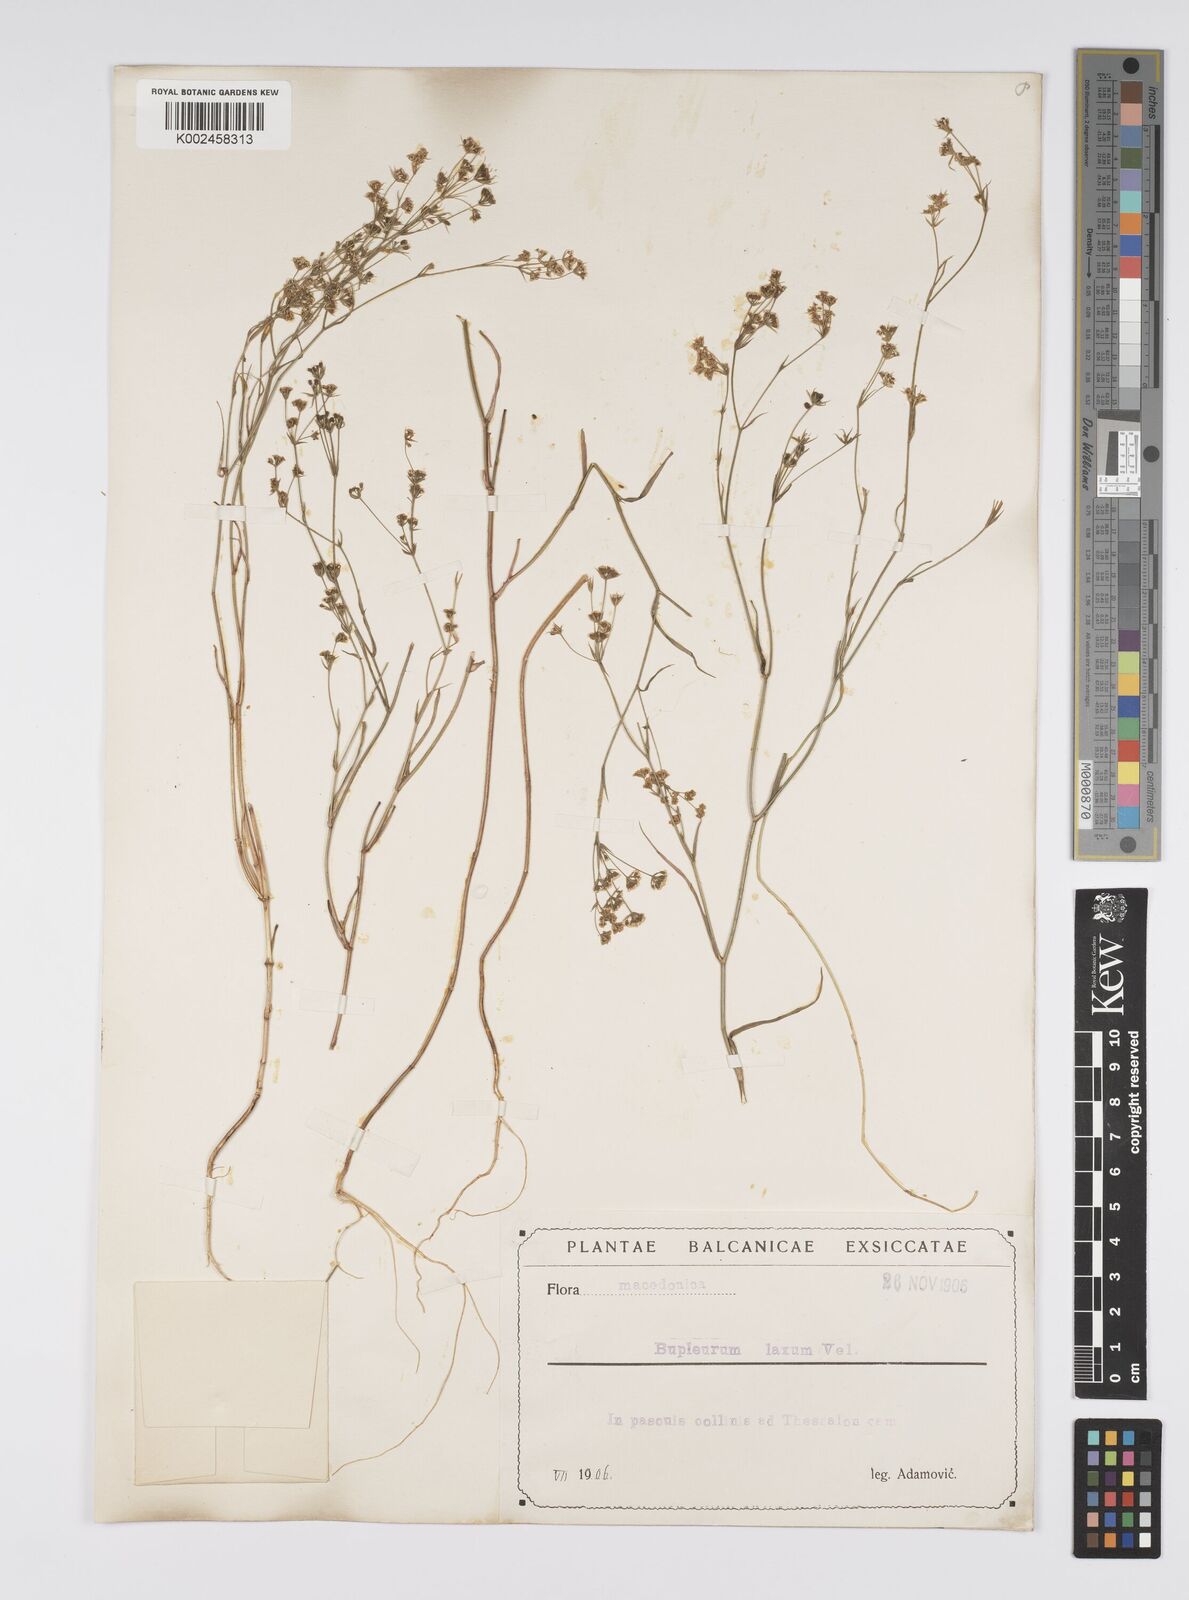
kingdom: Plantae
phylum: Tracheophyta
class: Magnoliopsida
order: Apiales
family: Apiaceae
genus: Bupleurum
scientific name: Bupleurum commutatum
